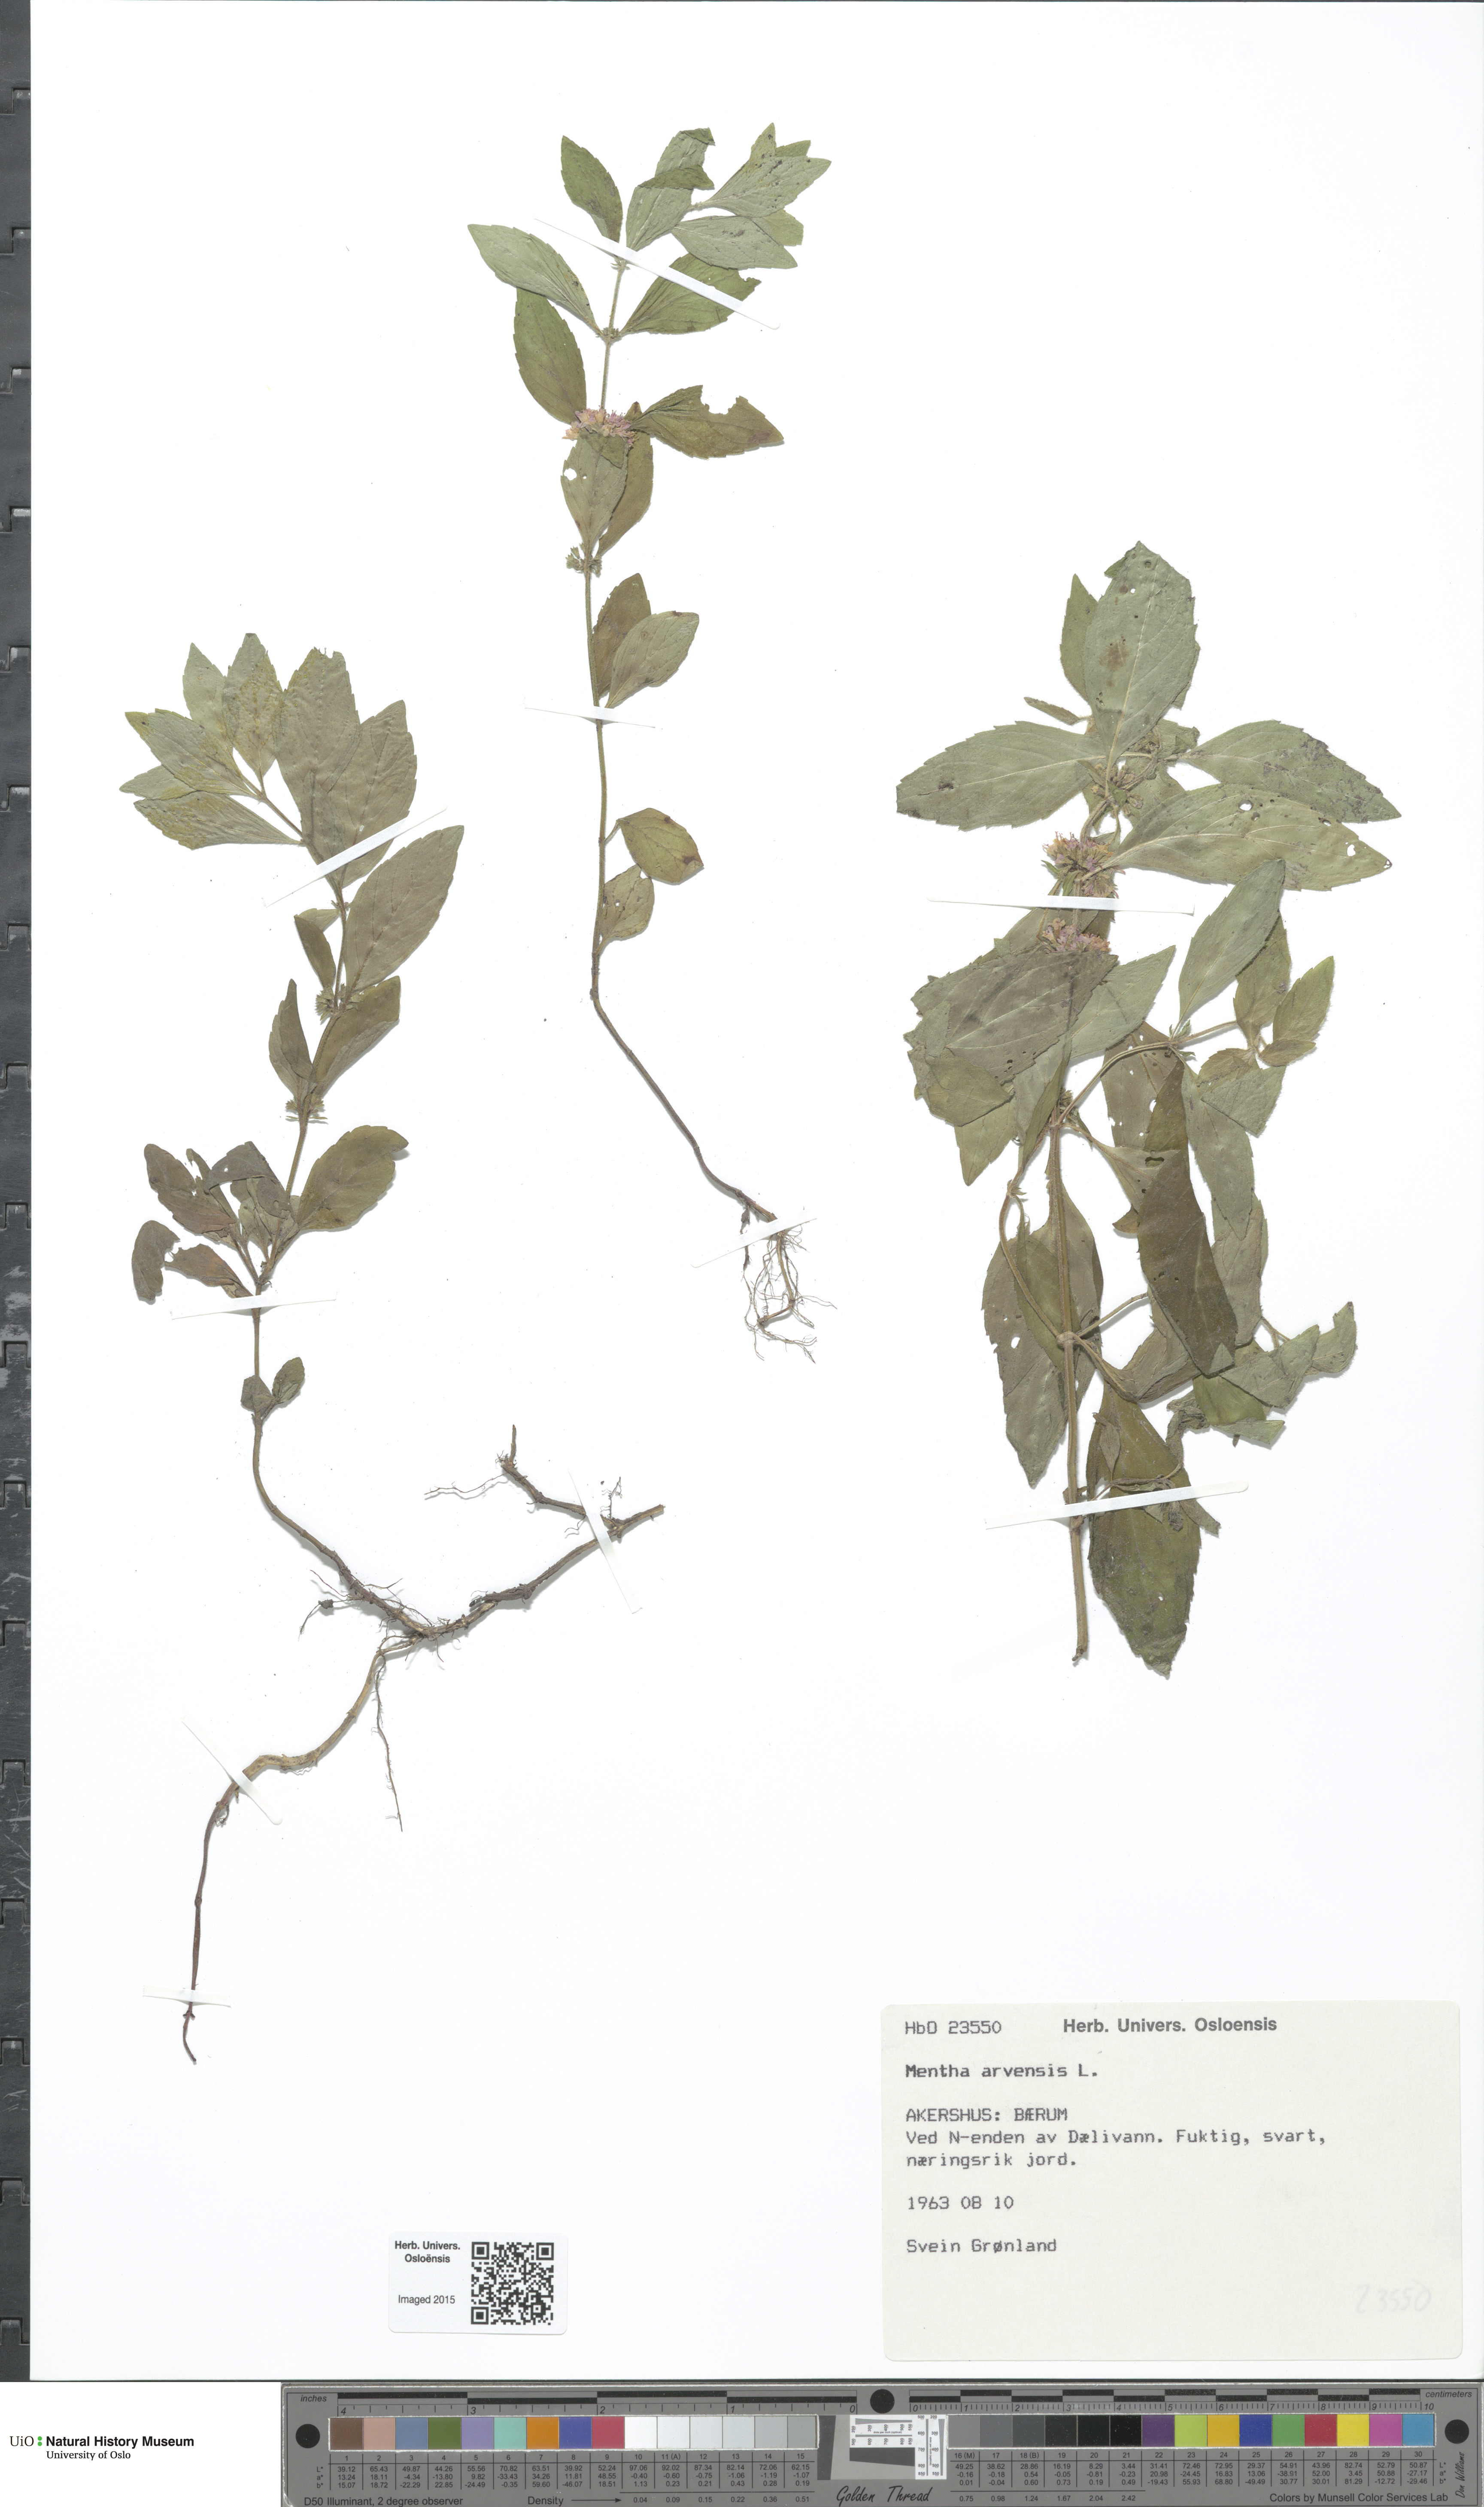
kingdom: Plantae
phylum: Tracheophyta
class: Magnoliopsida
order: Lamiales
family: Lamiaceae
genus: Mentha
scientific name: Mentha arvensis
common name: Corn mint
